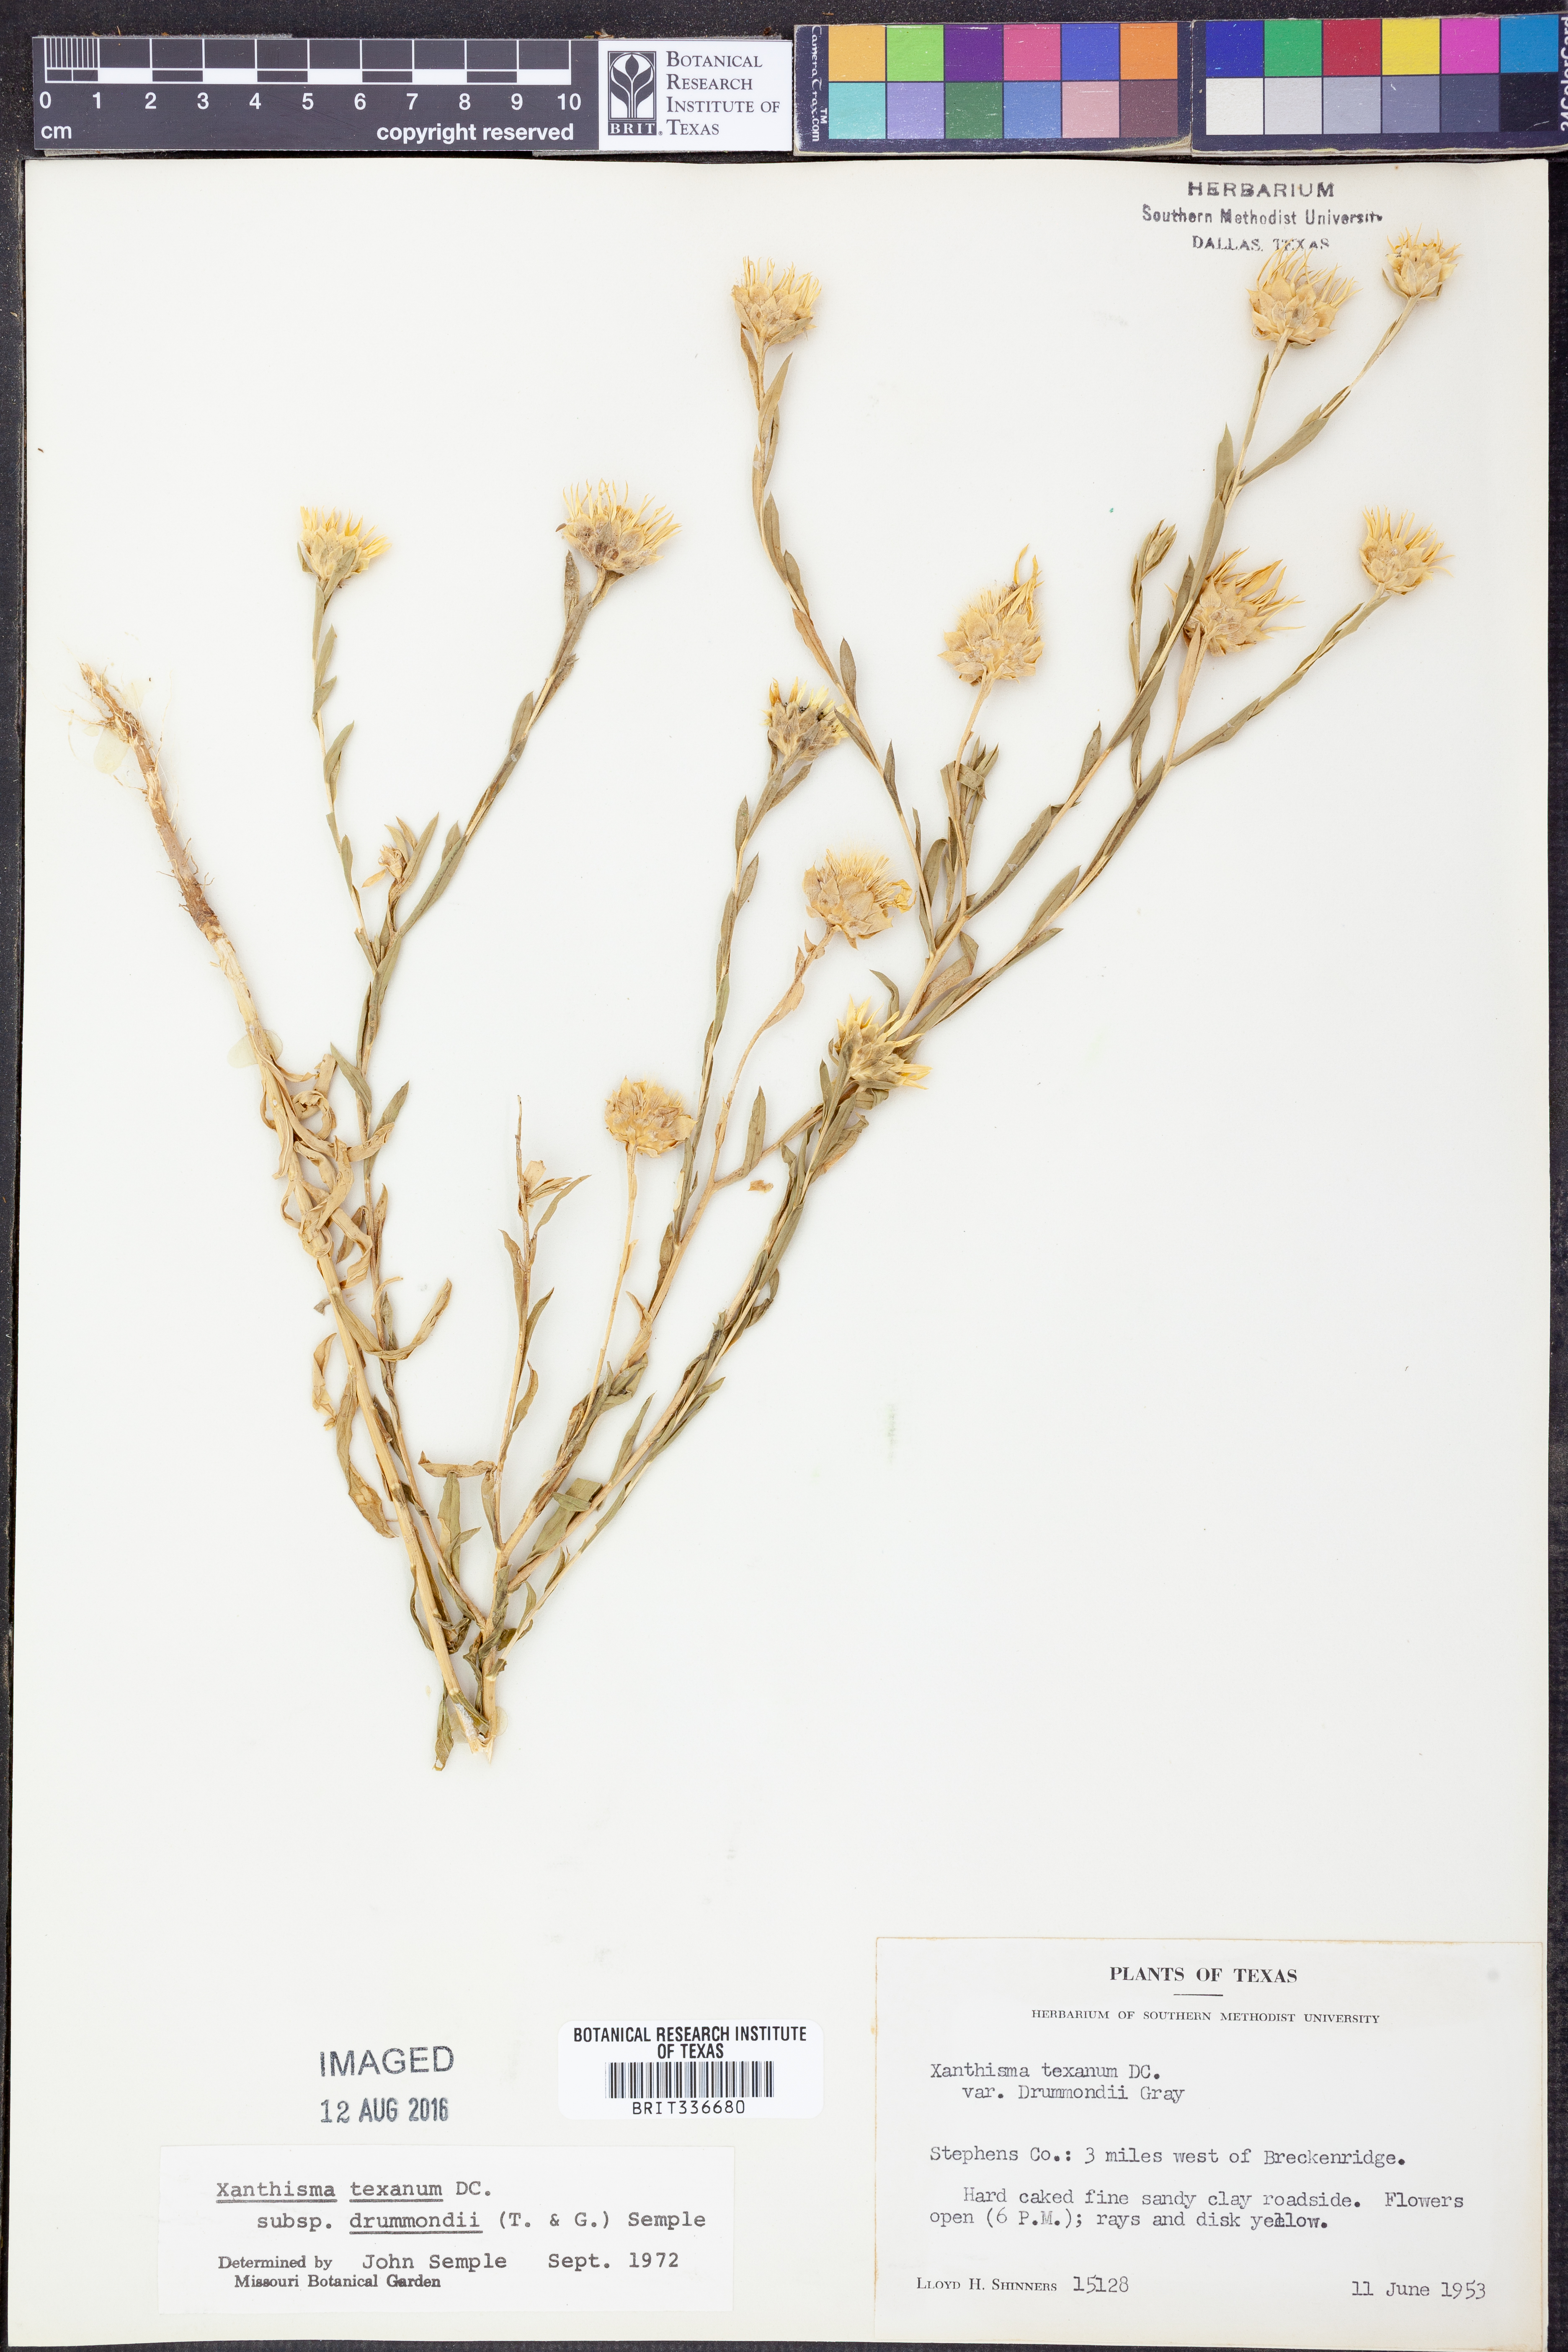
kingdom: Plantae
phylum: Tracheophyta
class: Magnoliopsida
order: Asterales
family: Asteraceae
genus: Xanthisma
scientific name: Xanthisma texanum
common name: Texas sleepy daisy
